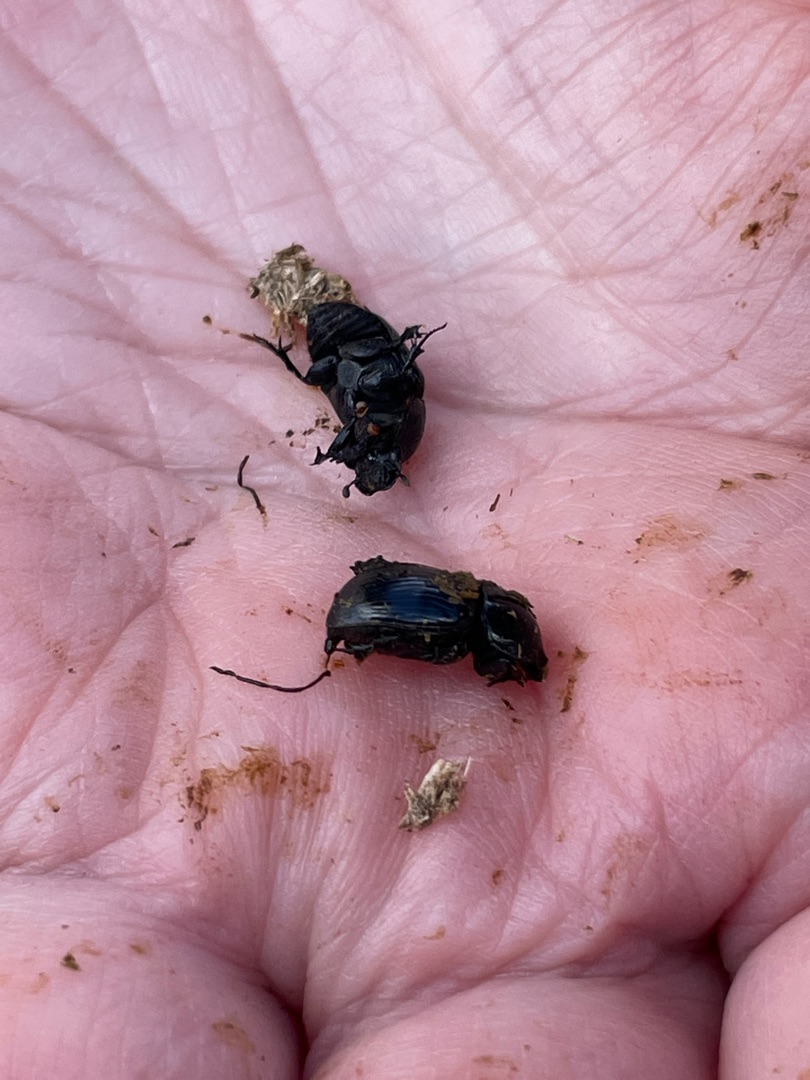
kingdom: Animalia
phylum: Arthropoda
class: Insecta
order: Coleoptera
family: Scarabaeidae
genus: Teuchestes
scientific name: Teuchestes fossor
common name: Stor møgbille
